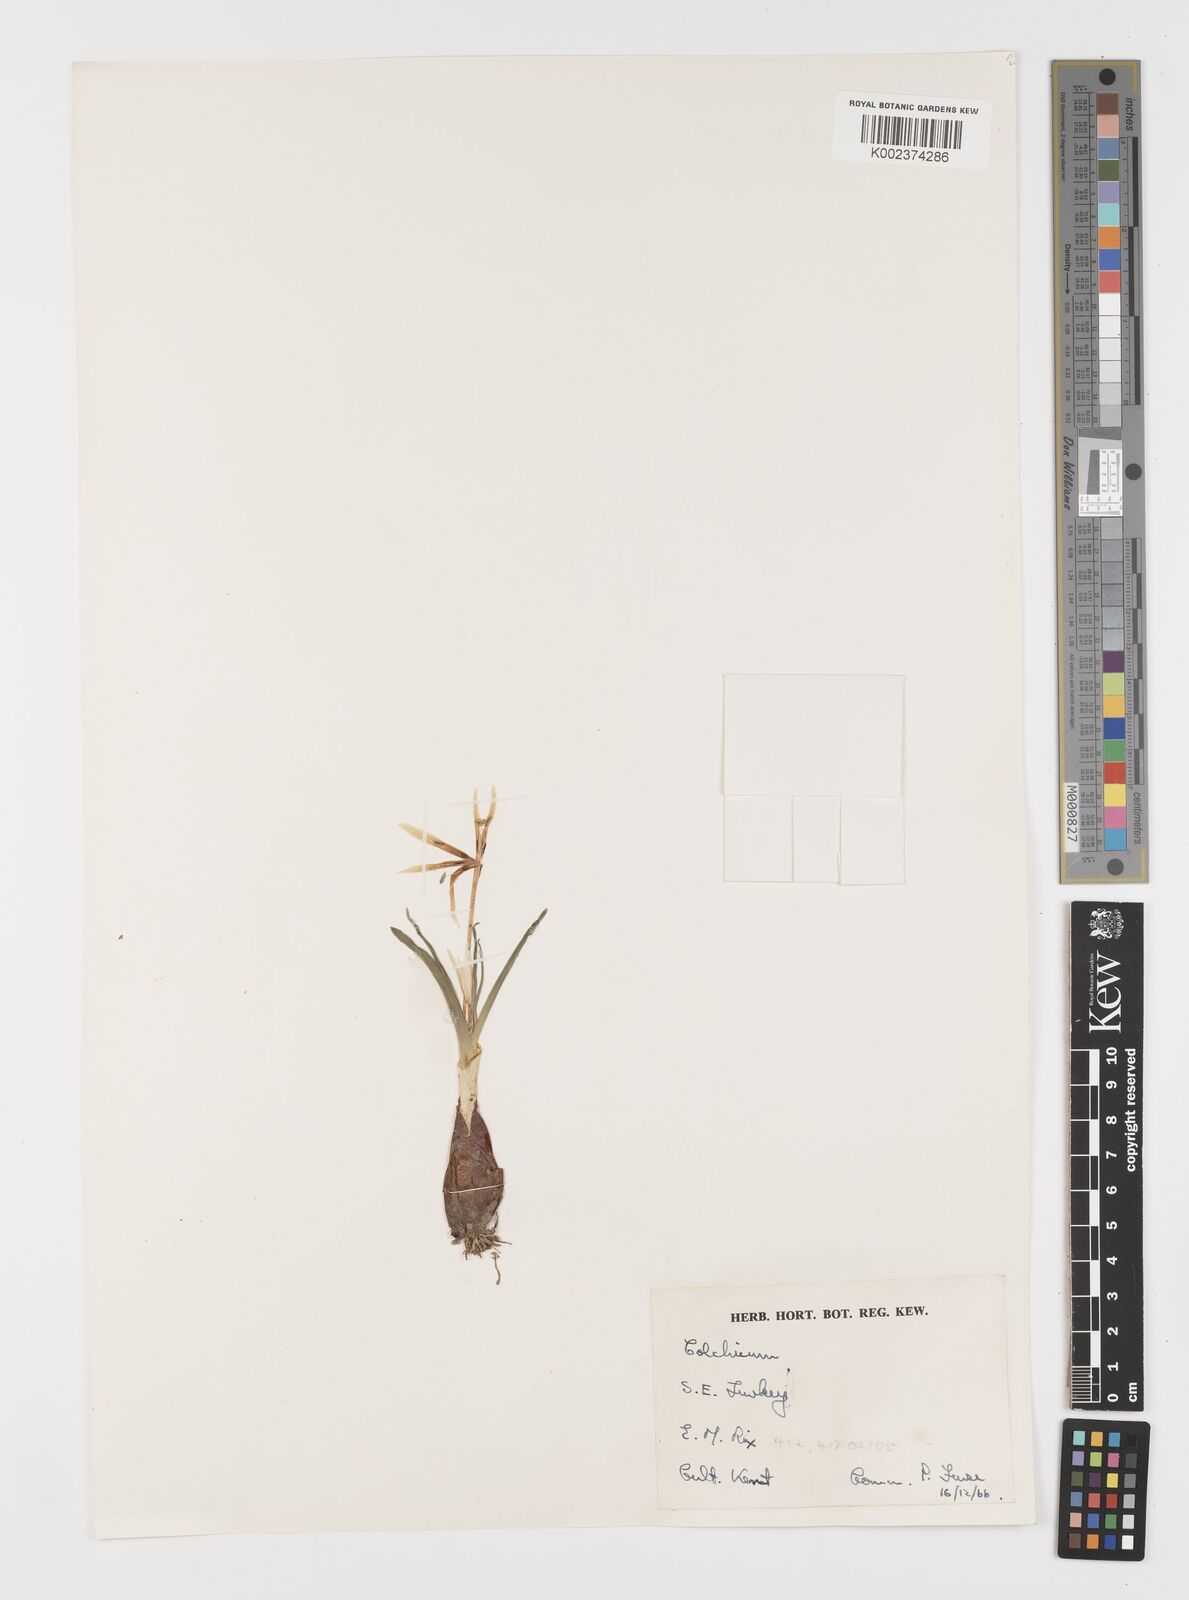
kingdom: Plantae
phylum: Tracheophyta
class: Liliopsida
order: Liliales
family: Colchicaceae
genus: Colchicum
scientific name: Colchicum
